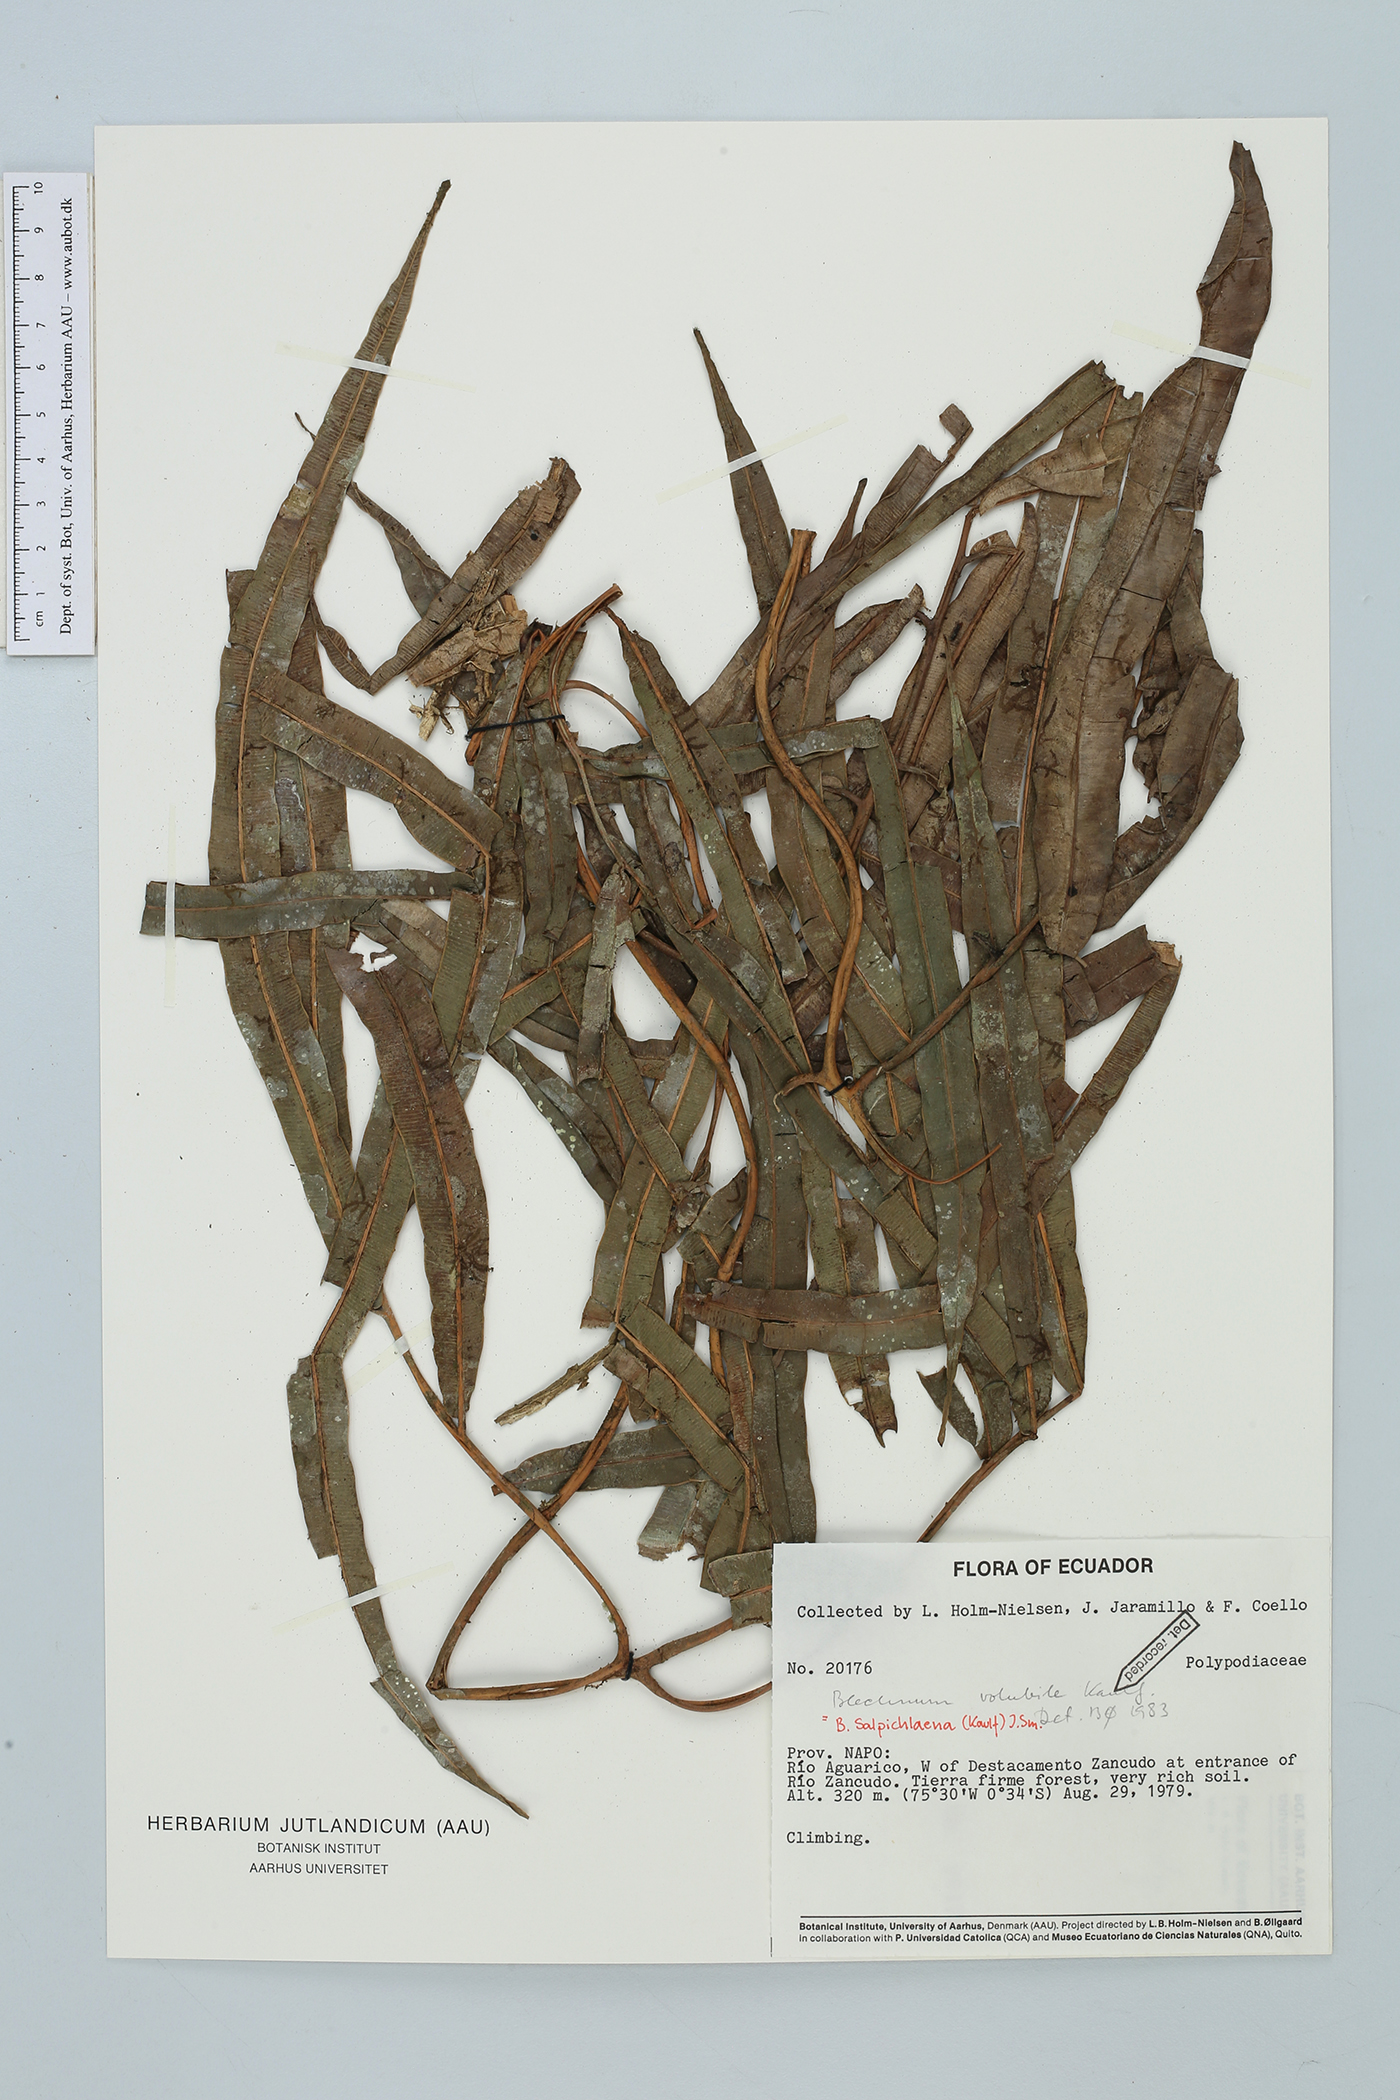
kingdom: Plantae
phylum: Tracheophyta
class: Polypodiopsida
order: Polypodiales
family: Blechnaceae
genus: Salpichlaena
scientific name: Salpichlaena volubilis
